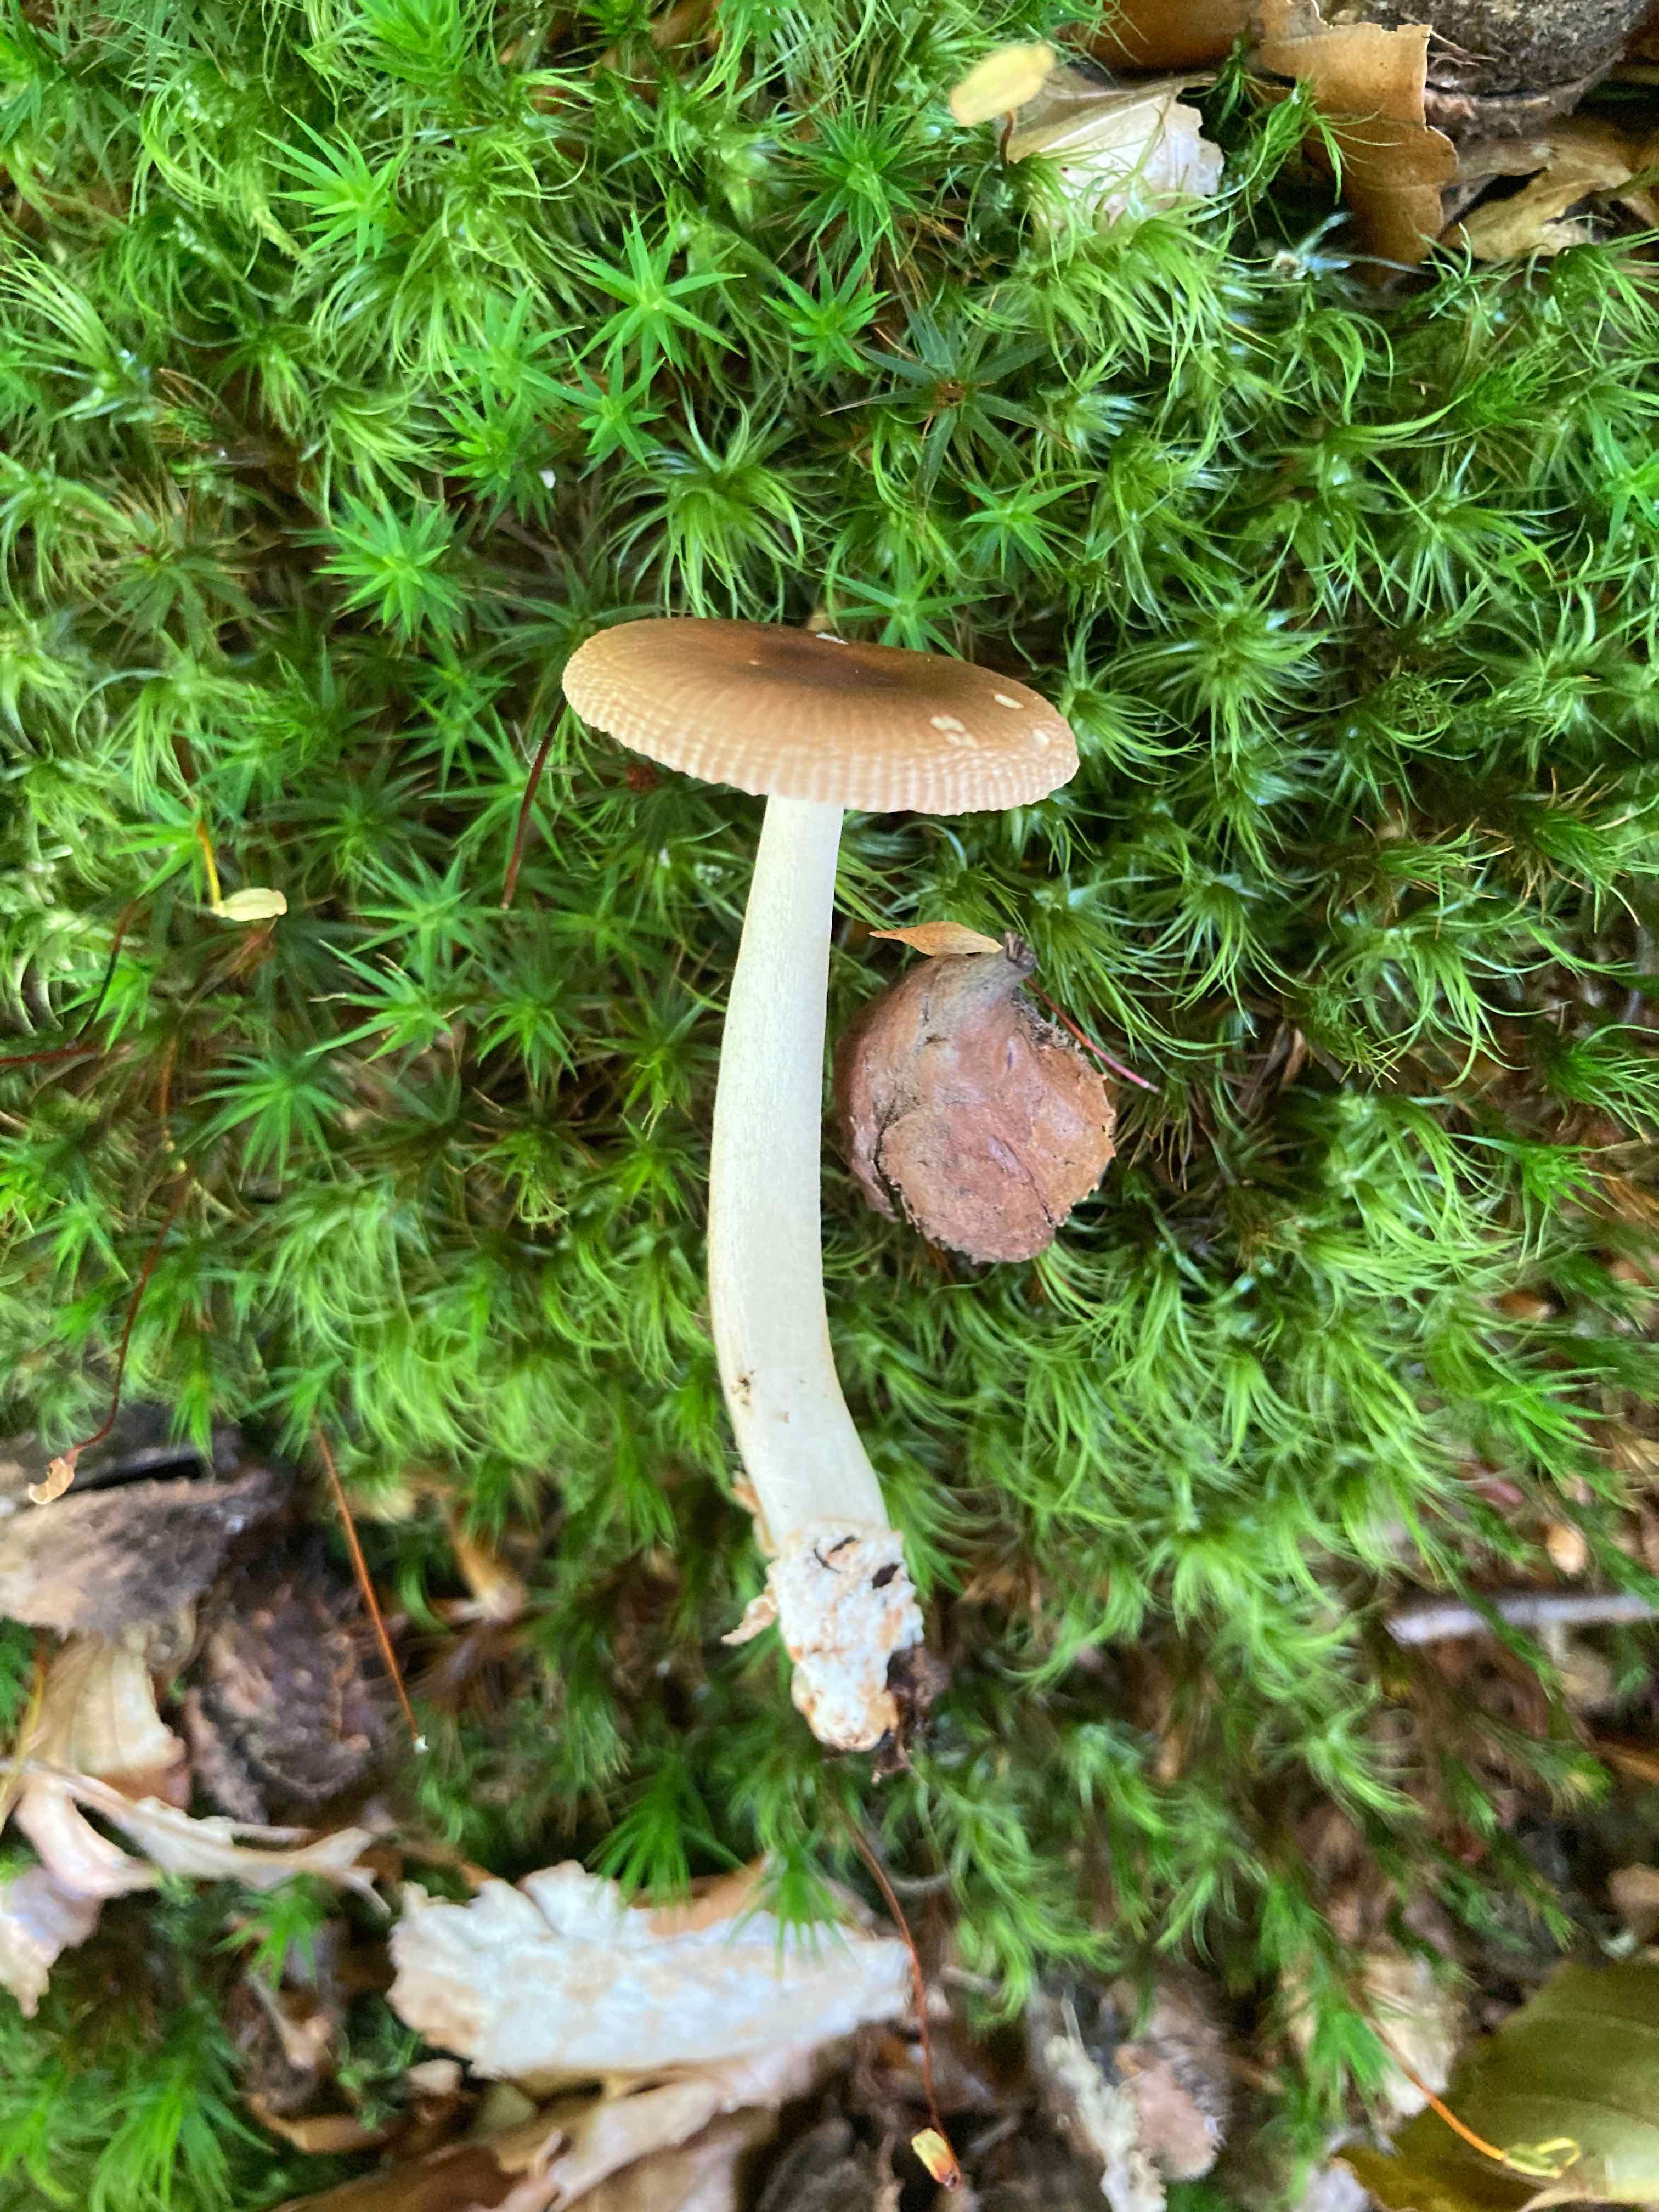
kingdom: Fungi
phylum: Basidiomycota
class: Agaricomycetes
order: Agaricales
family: Amanitaceae
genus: Amanita
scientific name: Amanita fulva
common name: brun kam-fluesvamp
